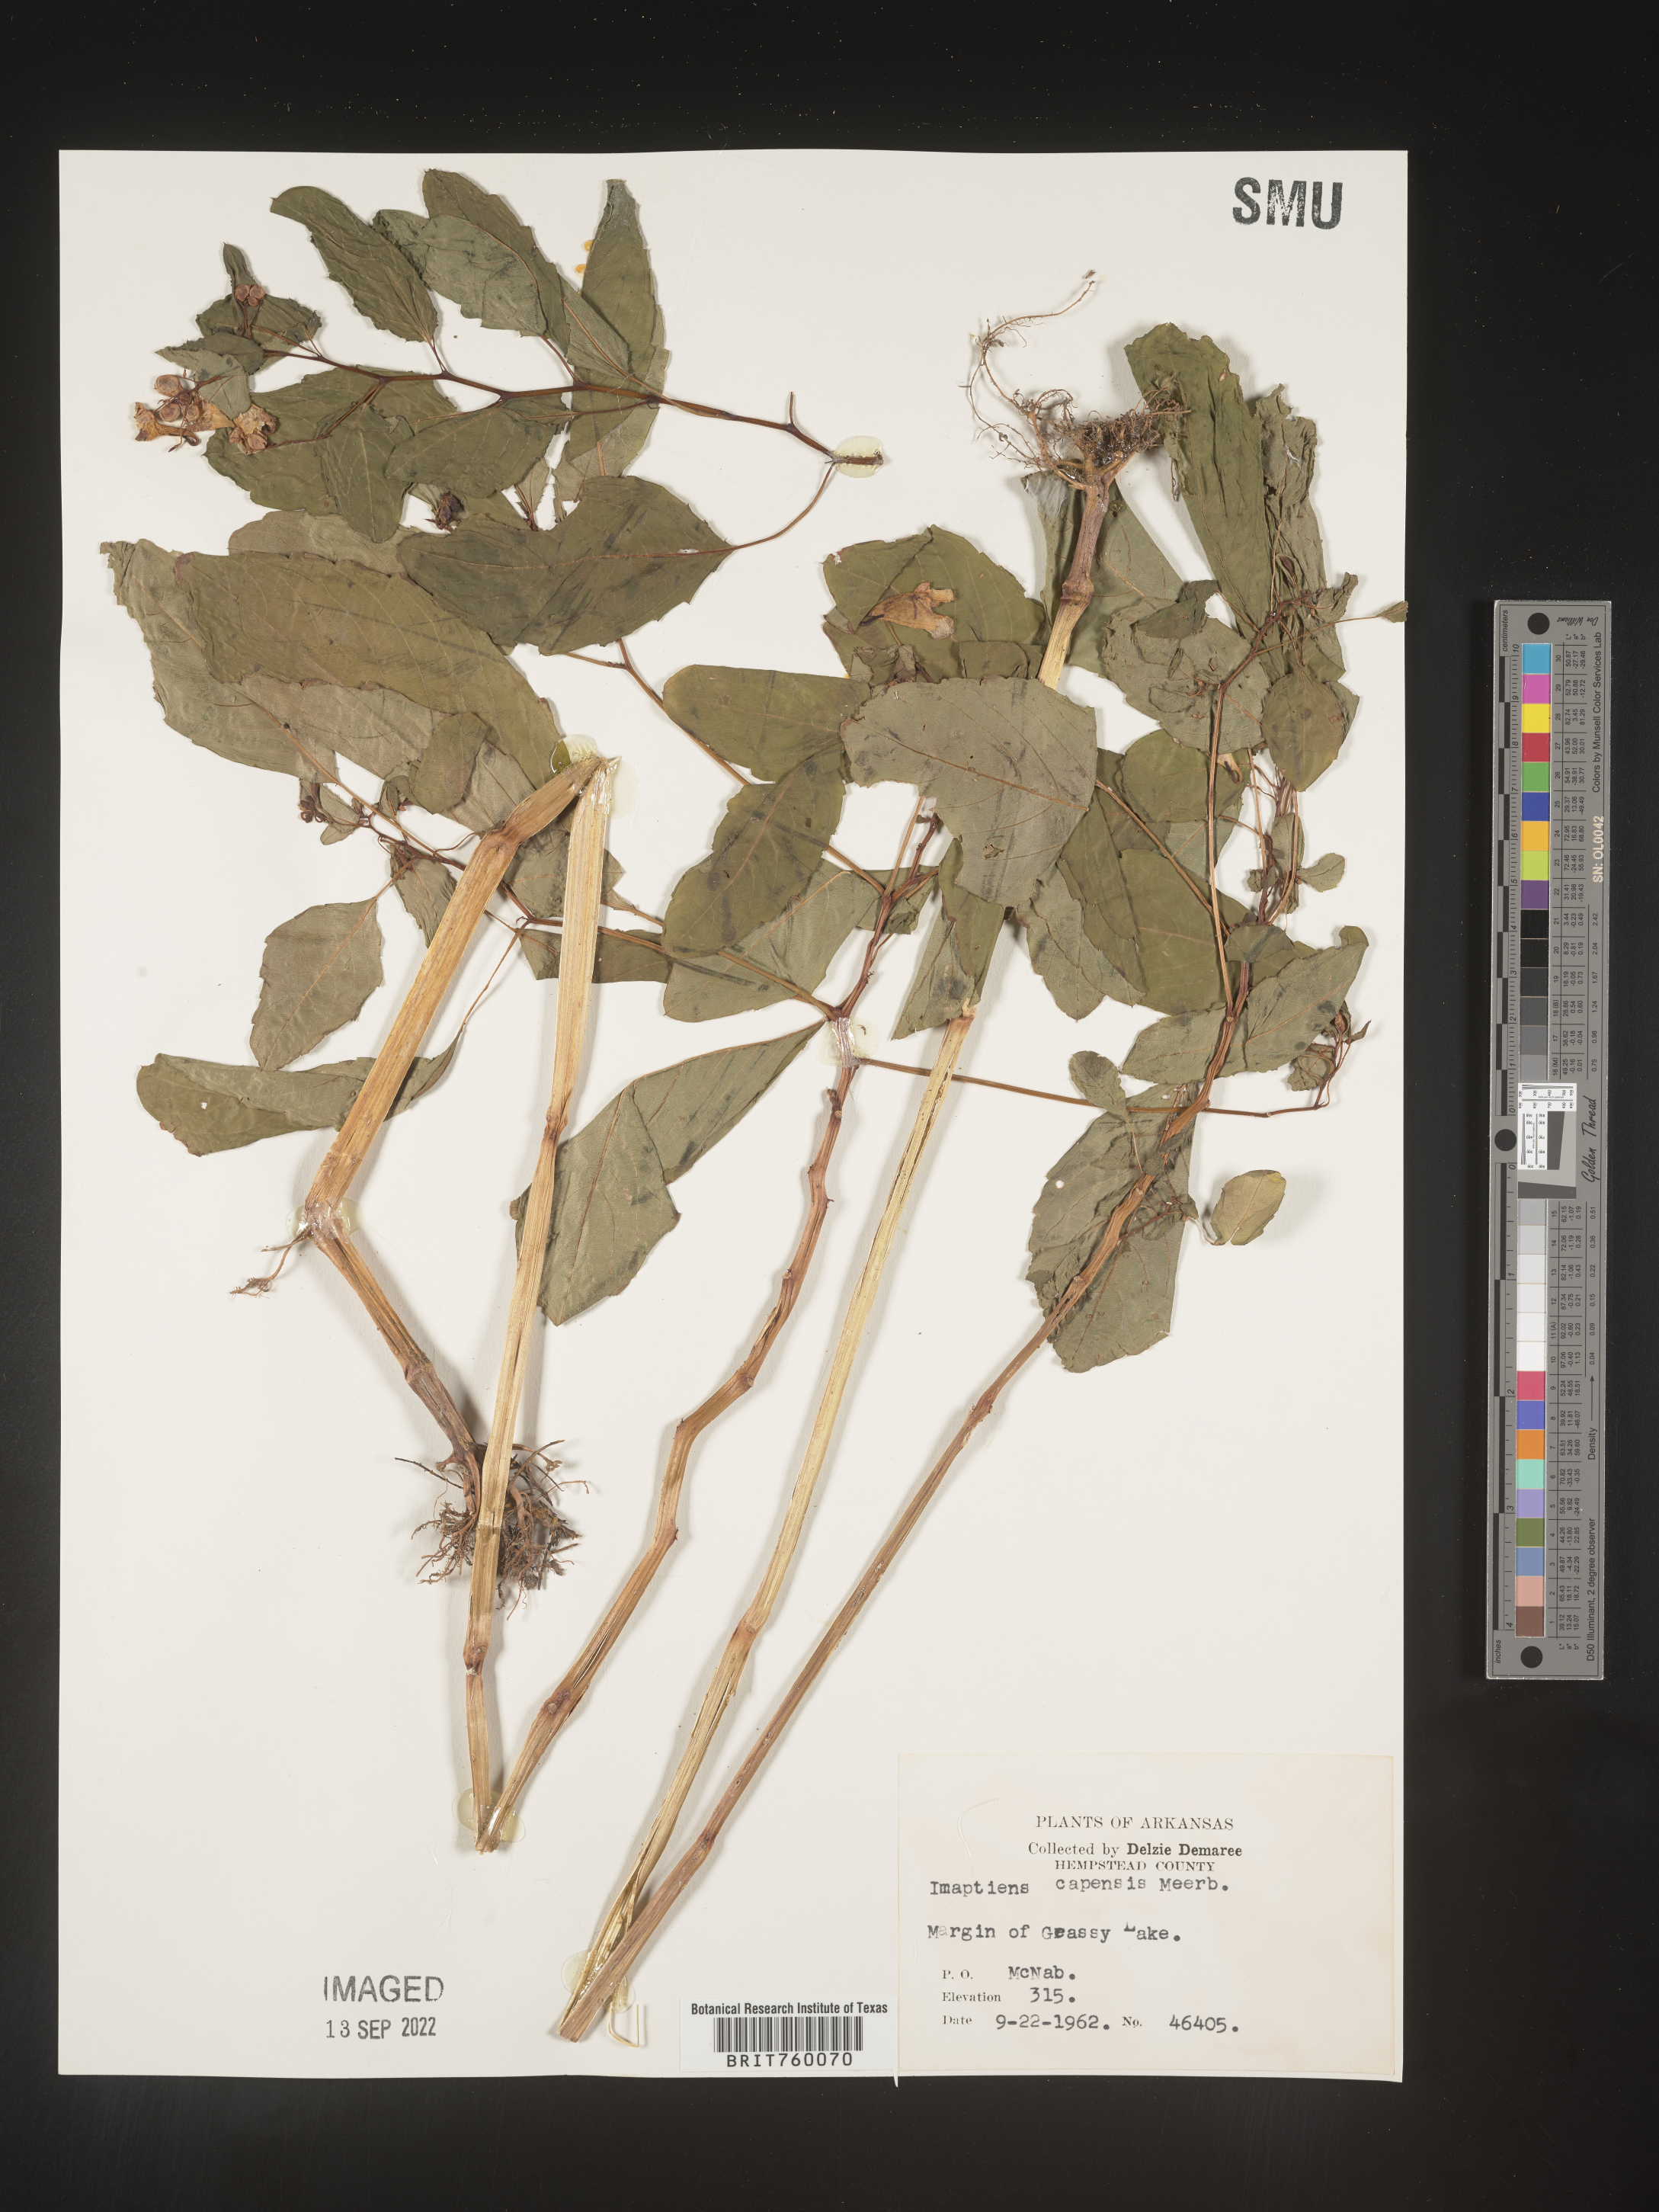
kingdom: Plantae
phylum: Tracheophyta
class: Magnoliopsida
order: Ericales
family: Balsaminaceae
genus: Impatiens
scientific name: Impatiens capensis
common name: Orange balsam
